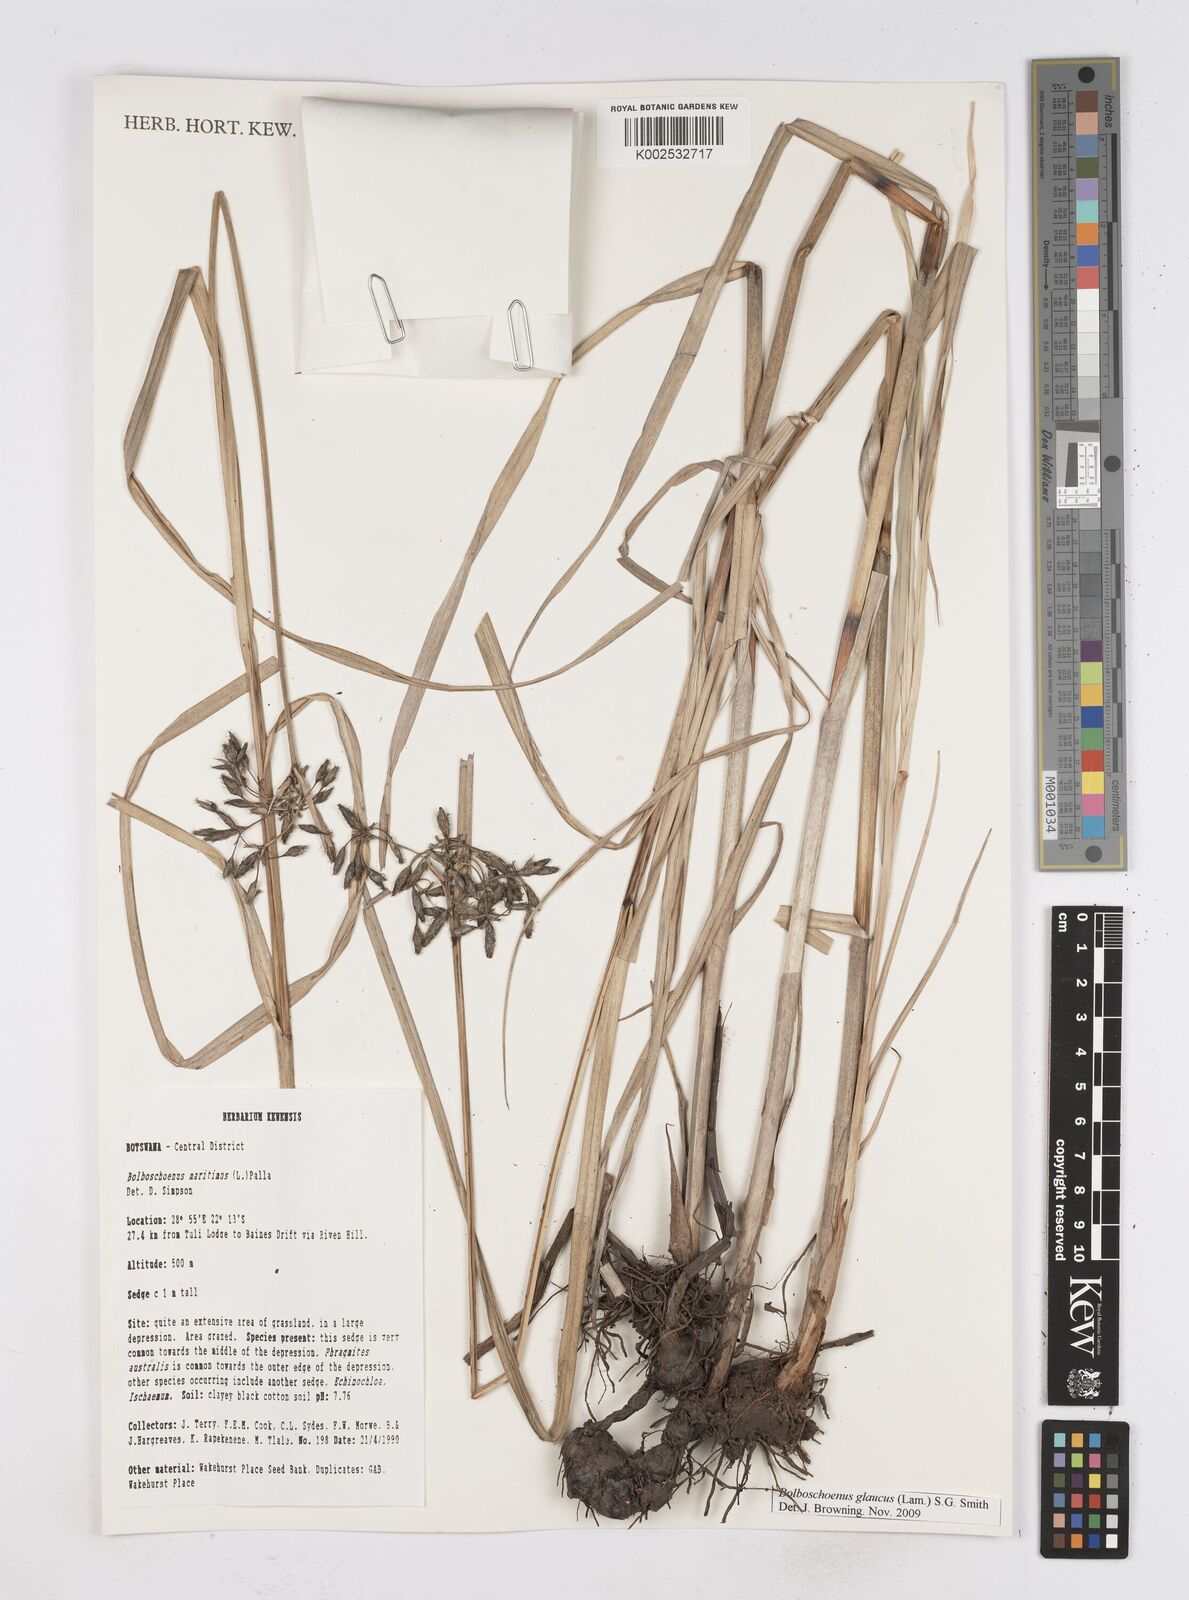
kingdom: Plantae
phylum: Tracheophyta
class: Liliopsida
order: Poales
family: Cyperaceae
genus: Bolboschoenus
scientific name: Bolboschoenus glaucus
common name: Tuberous bulrush
